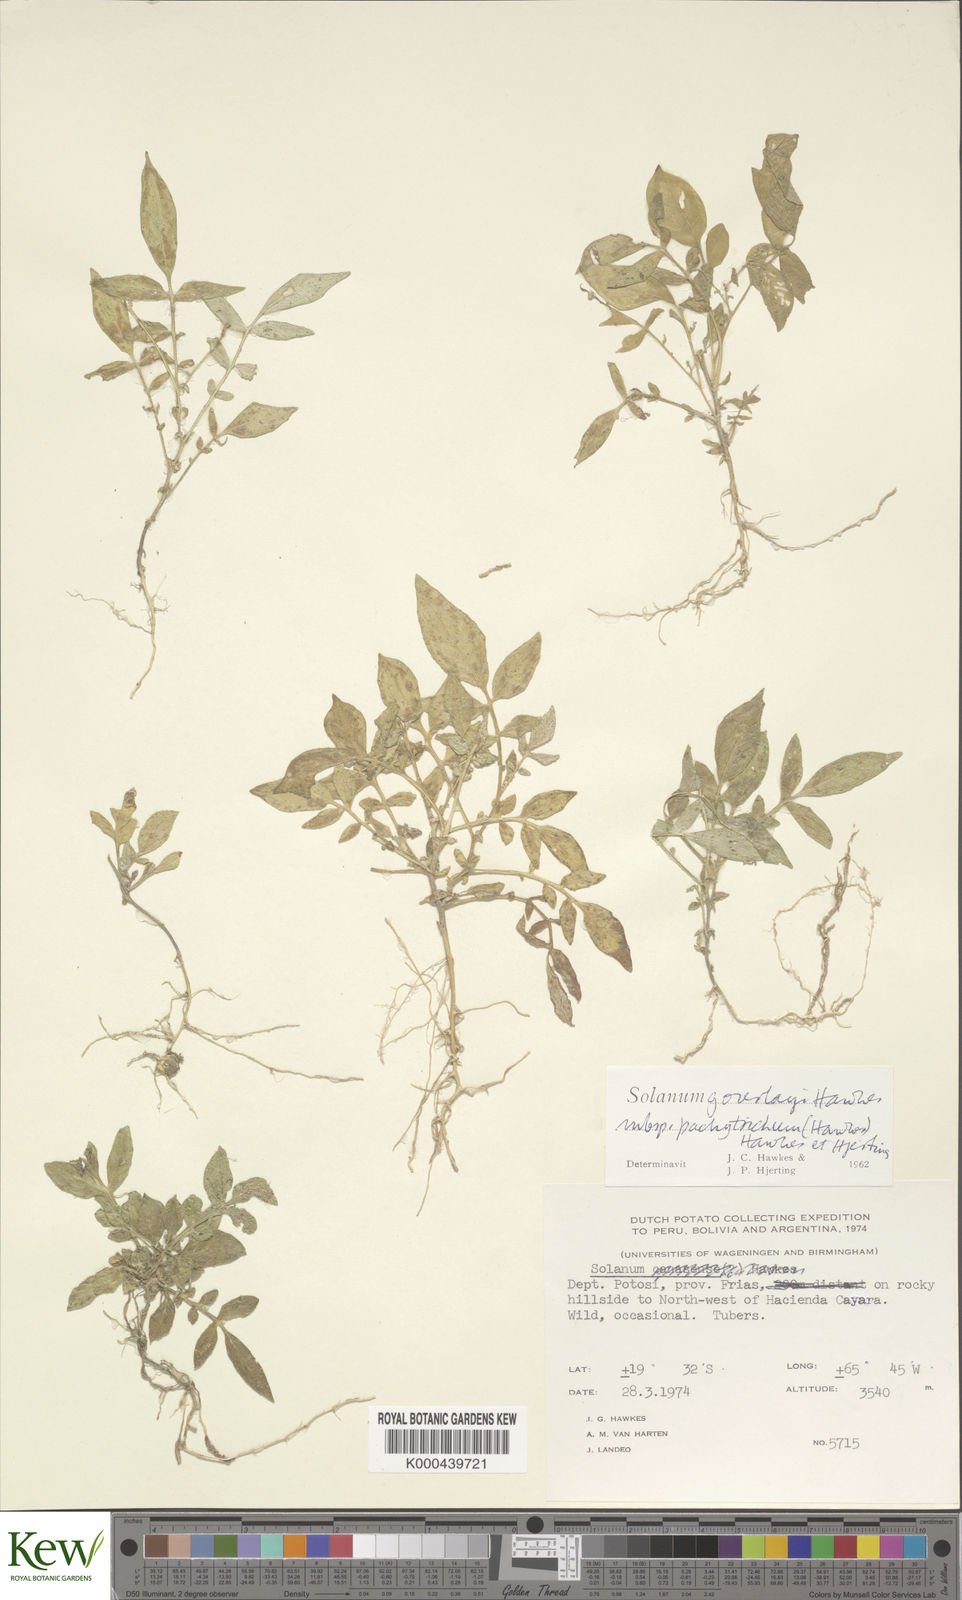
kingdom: Plantae
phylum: Tracheophyta
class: Magnoliopsida
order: Solanales
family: Solanaceae
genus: Solanum
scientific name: Solanum brevicaule
